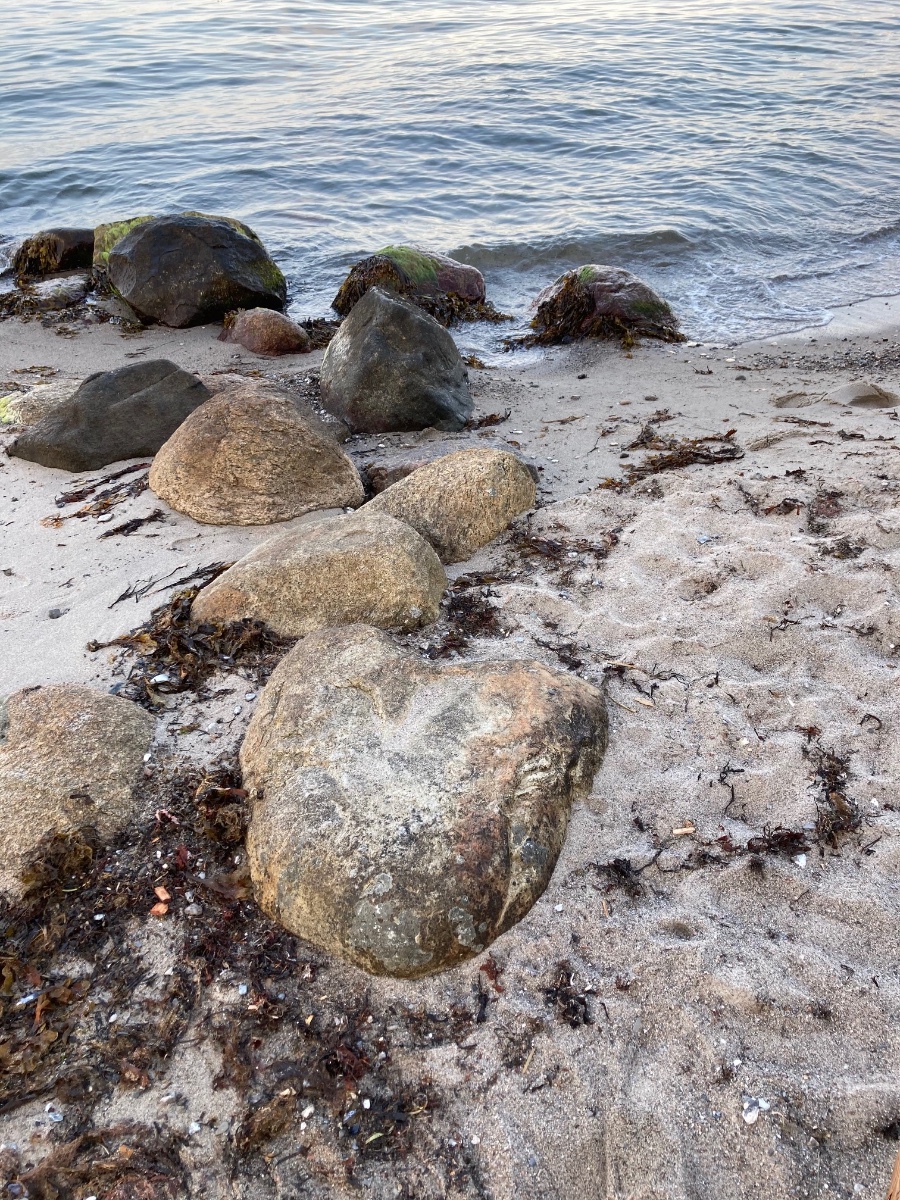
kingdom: Fungi
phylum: Ascomycota
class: Lecanoromycetes
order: Lecanorales
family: Lecanoraceae
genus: Lecanora
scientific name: Lecanora helicopis
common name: salt-kantskivelav
